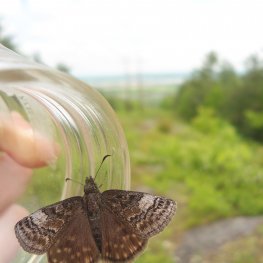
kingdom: Animalia
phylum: Arthropoda
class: Insecta
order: Lepidoptera
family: Hesperiidae
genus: Erynnis
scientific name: Erynnis icelus
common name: Dreamy Duskywing
